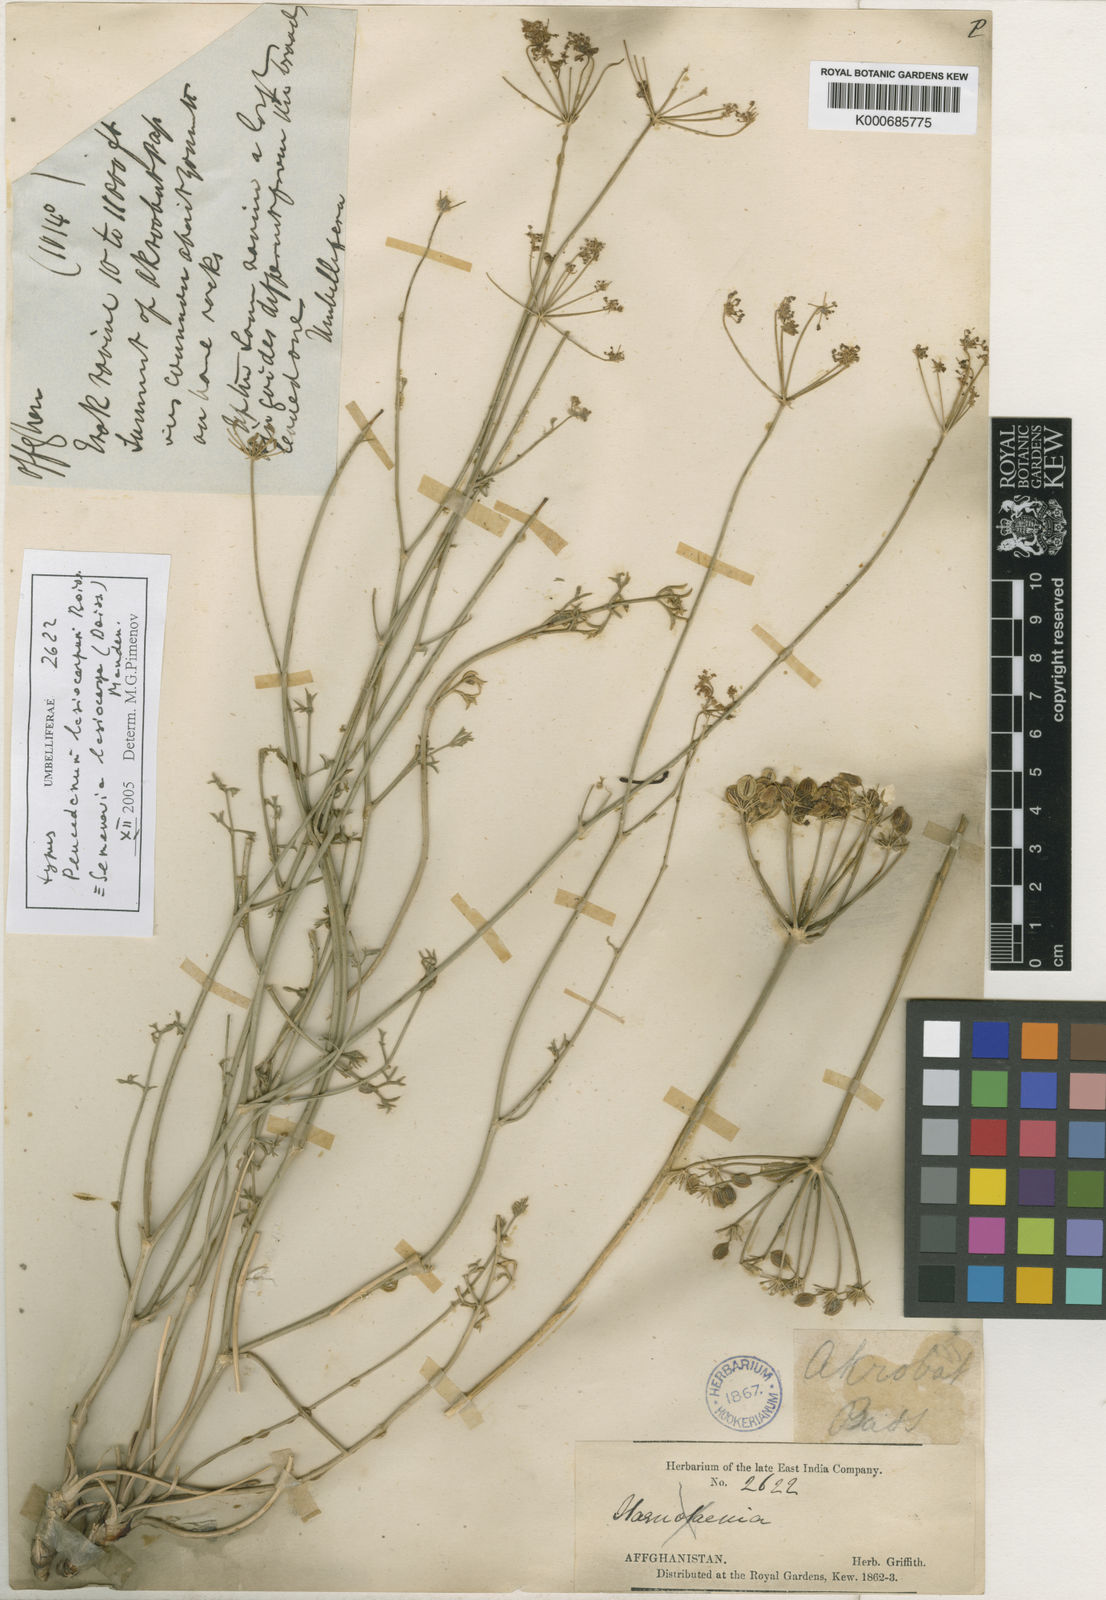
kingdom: Plantae
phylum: Tracheophyta
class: Magnoliopsida
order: Apiales
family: Apiaceae
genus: Semenovia
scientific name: Semenovia lasiocarpa
